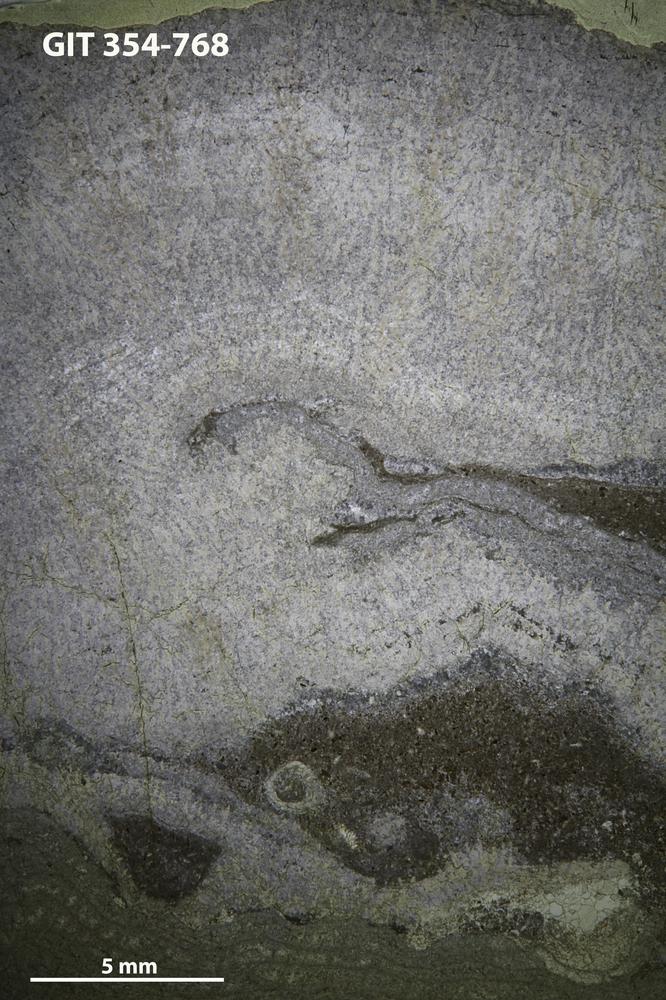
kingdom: Animalia
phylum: Porifera
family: Pseudolabechiidae
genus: Pseudolabechia
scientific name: Pseudolabechia
